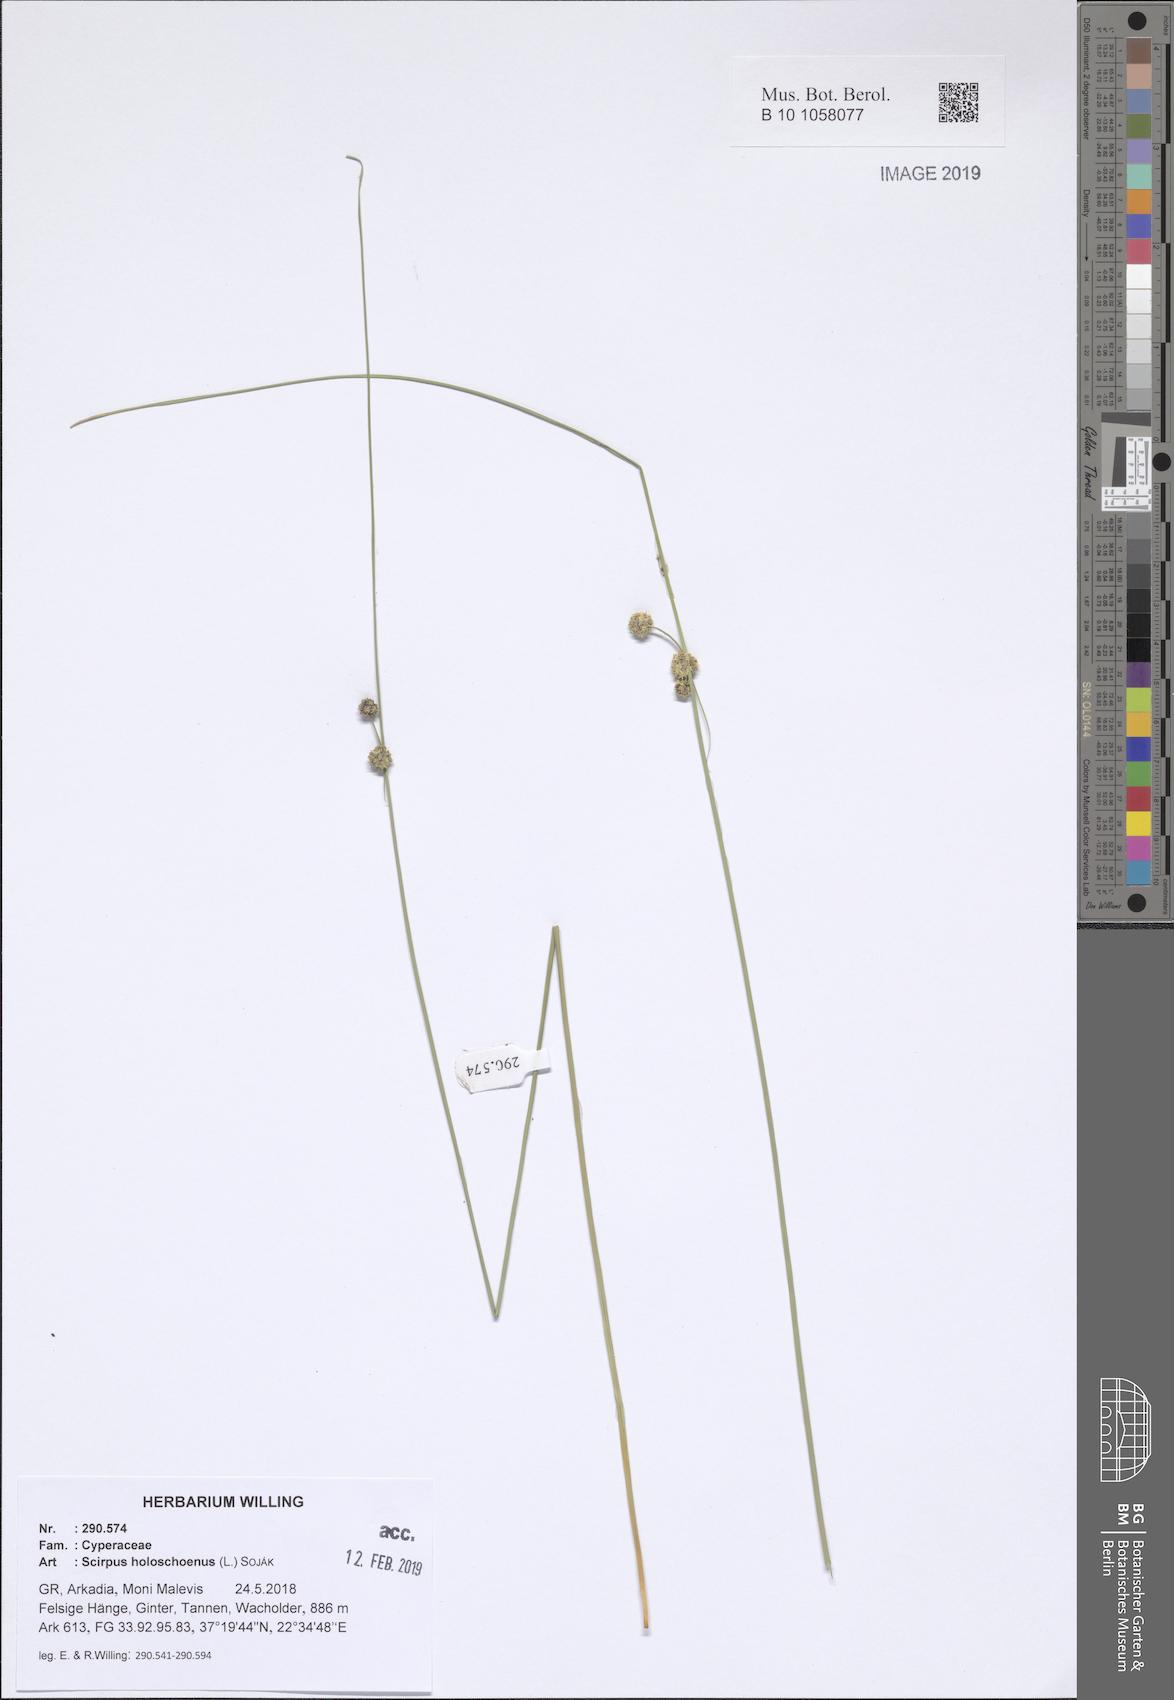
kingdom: Plantae
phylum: Tracheophyta
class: Liliopsida
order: Poales
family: Cyperaceae
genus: Scirpoides
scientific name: Scirpoides holoschoenus
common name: Round-headed club-rush
